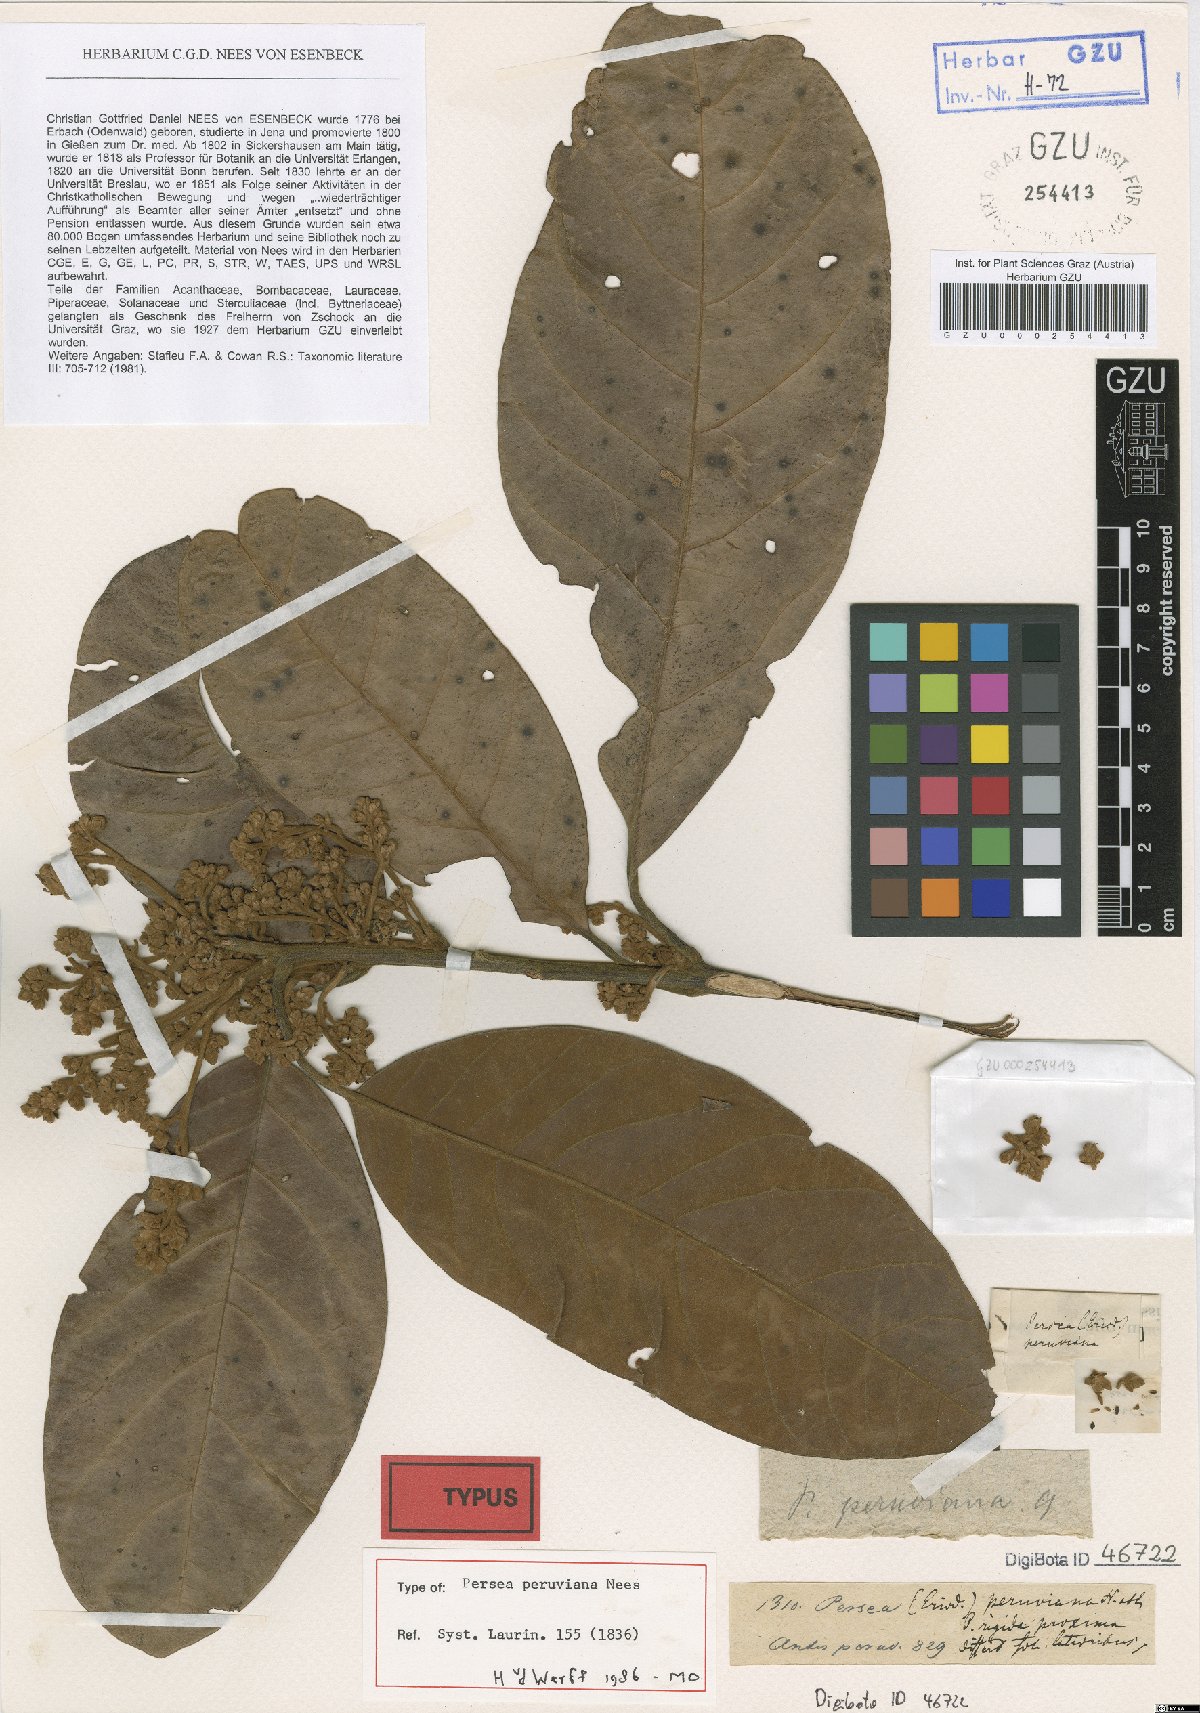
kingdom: Plantae
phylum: Tracheophyta
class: Magnoliopsida
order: Laurales
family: Lauraceae
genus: Persea
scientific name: Persea peruviana
